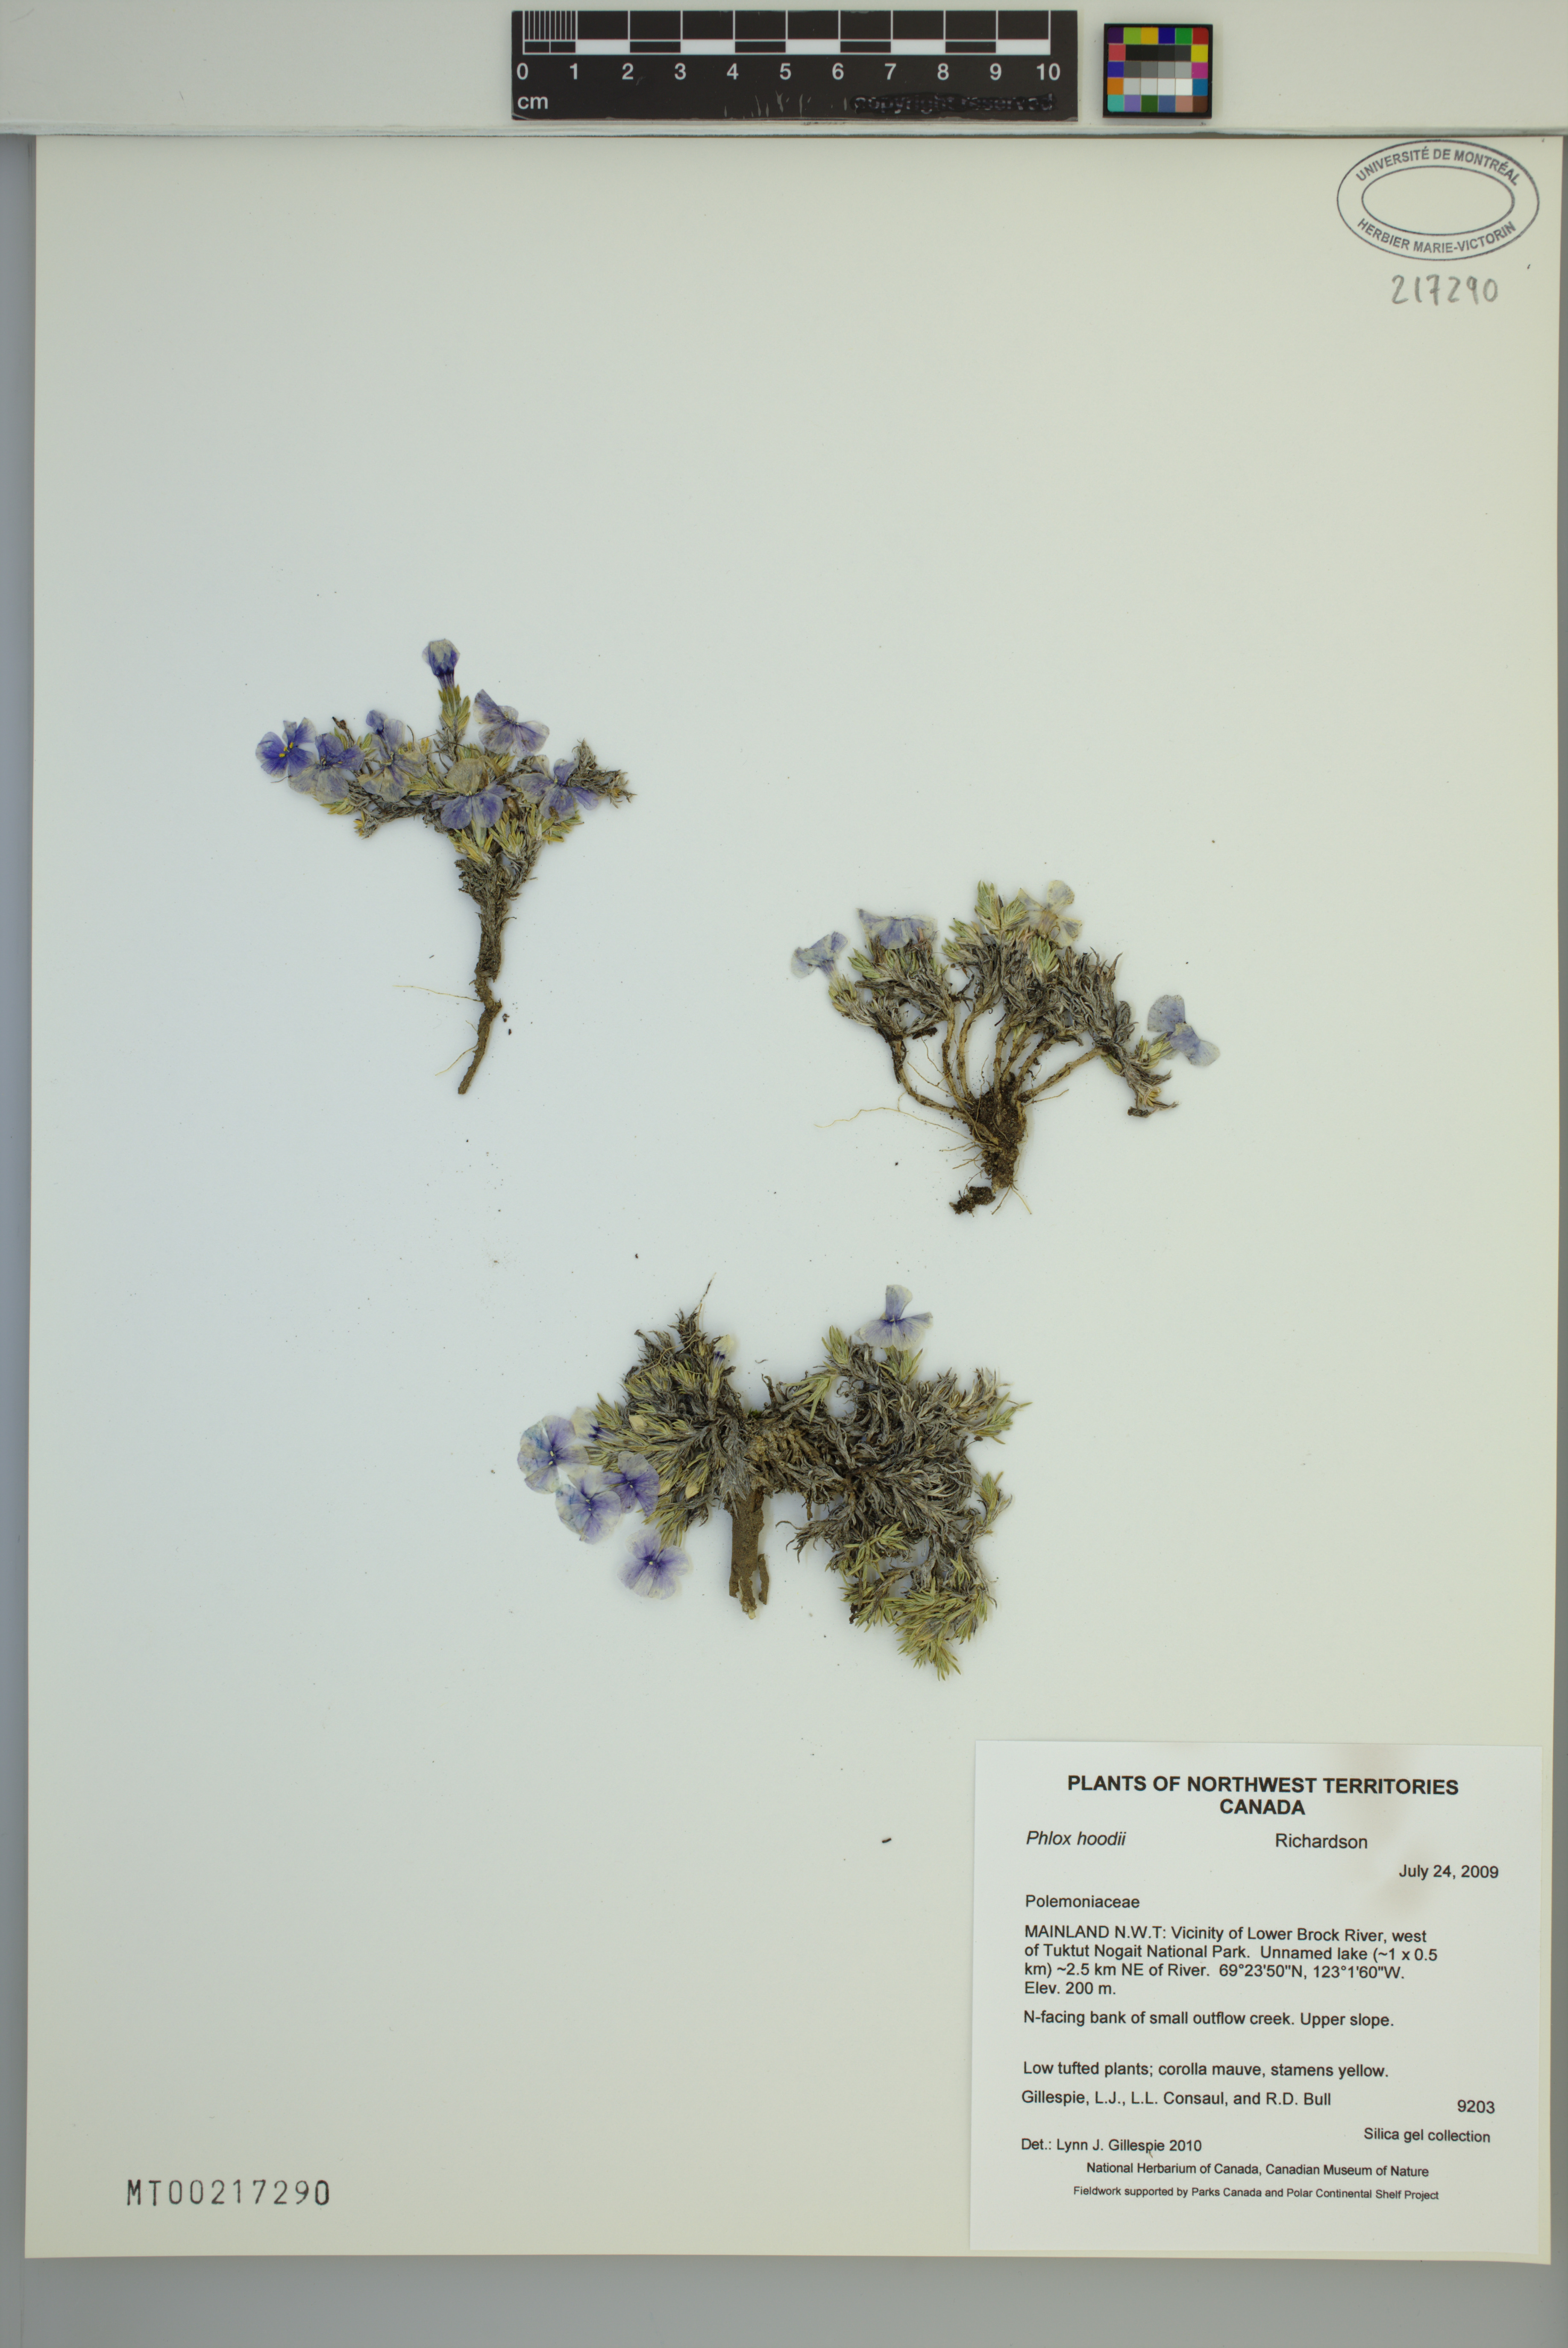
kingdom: Plantae
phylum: Tracheophyta
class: Magnoliopsida
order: Ericales
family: Polemoniaceae
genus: Phlox
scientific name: Phlox hoodii
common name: Moss phlox
